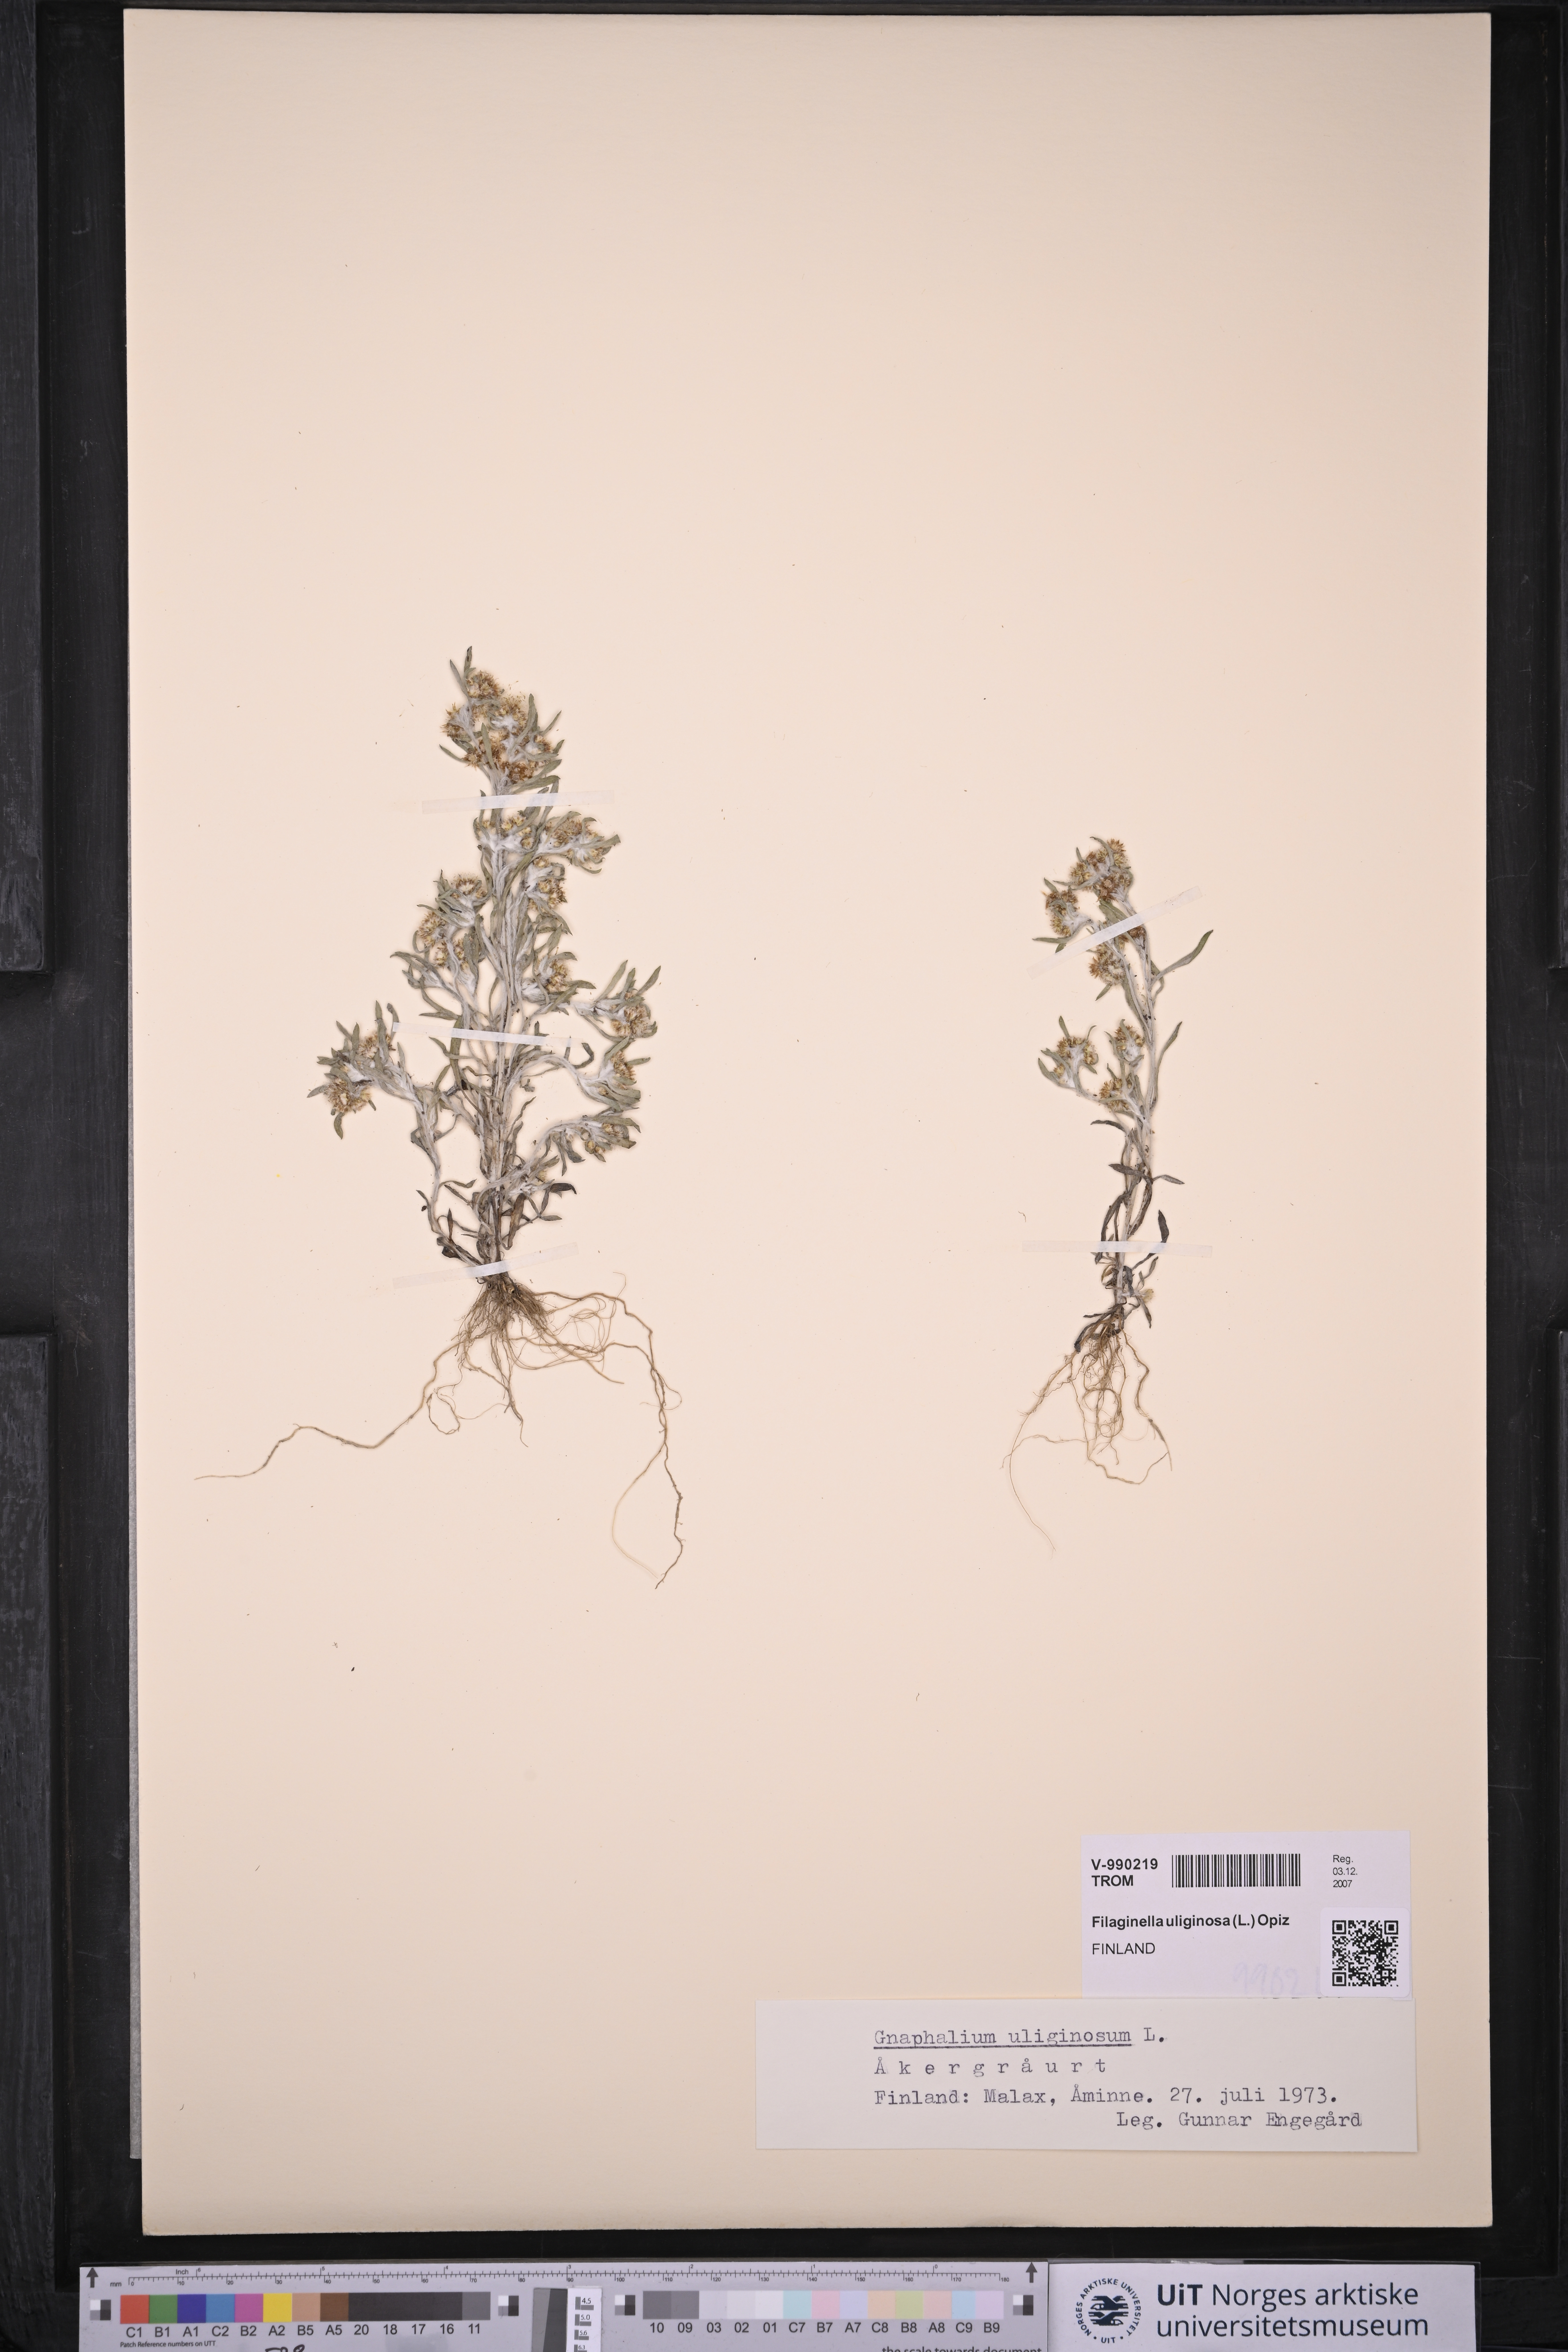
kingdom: Plantae
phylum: Tracheophyta
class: Magnoliopsida
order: Asterales
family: Asteraceae
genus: Gnaphalium
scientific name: Gnaphalium uliginosum
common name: Marsh cudweed
